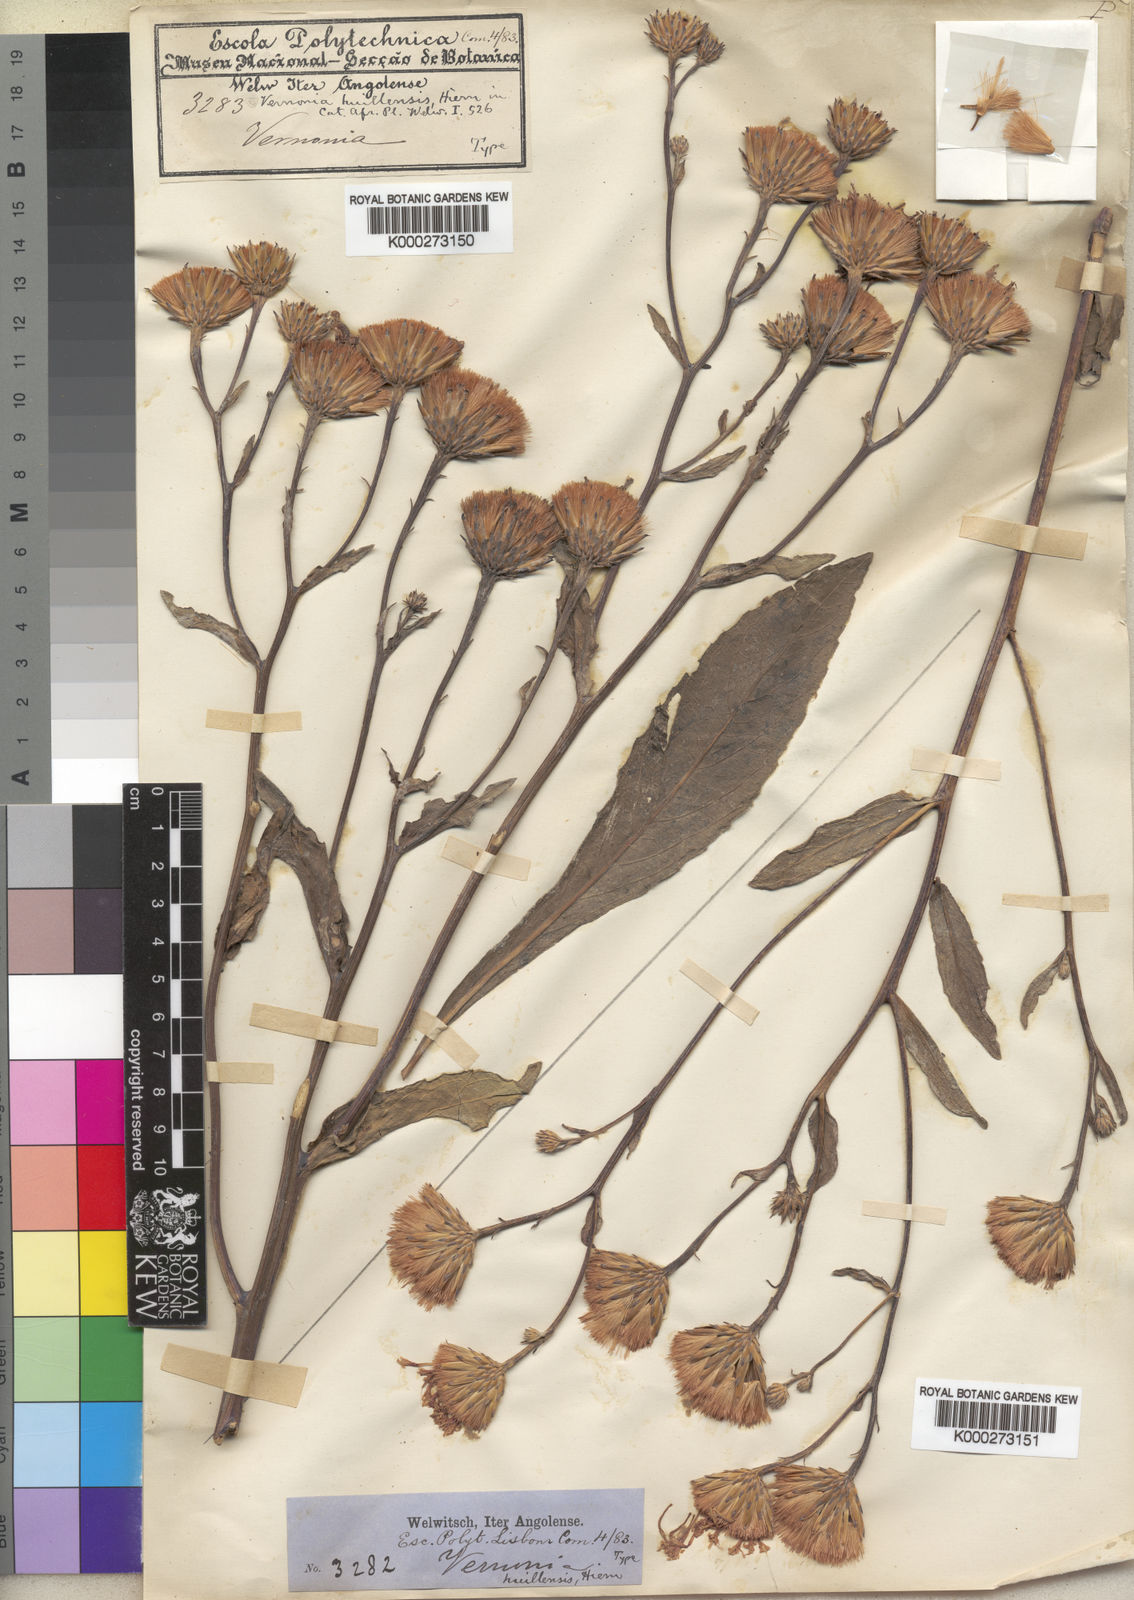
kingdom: Plantae
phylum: Tracheophyta
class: Magnoliopsida
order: Asterales
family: Asteraceae
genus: Vernonia
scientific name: Vernonia huillensis
